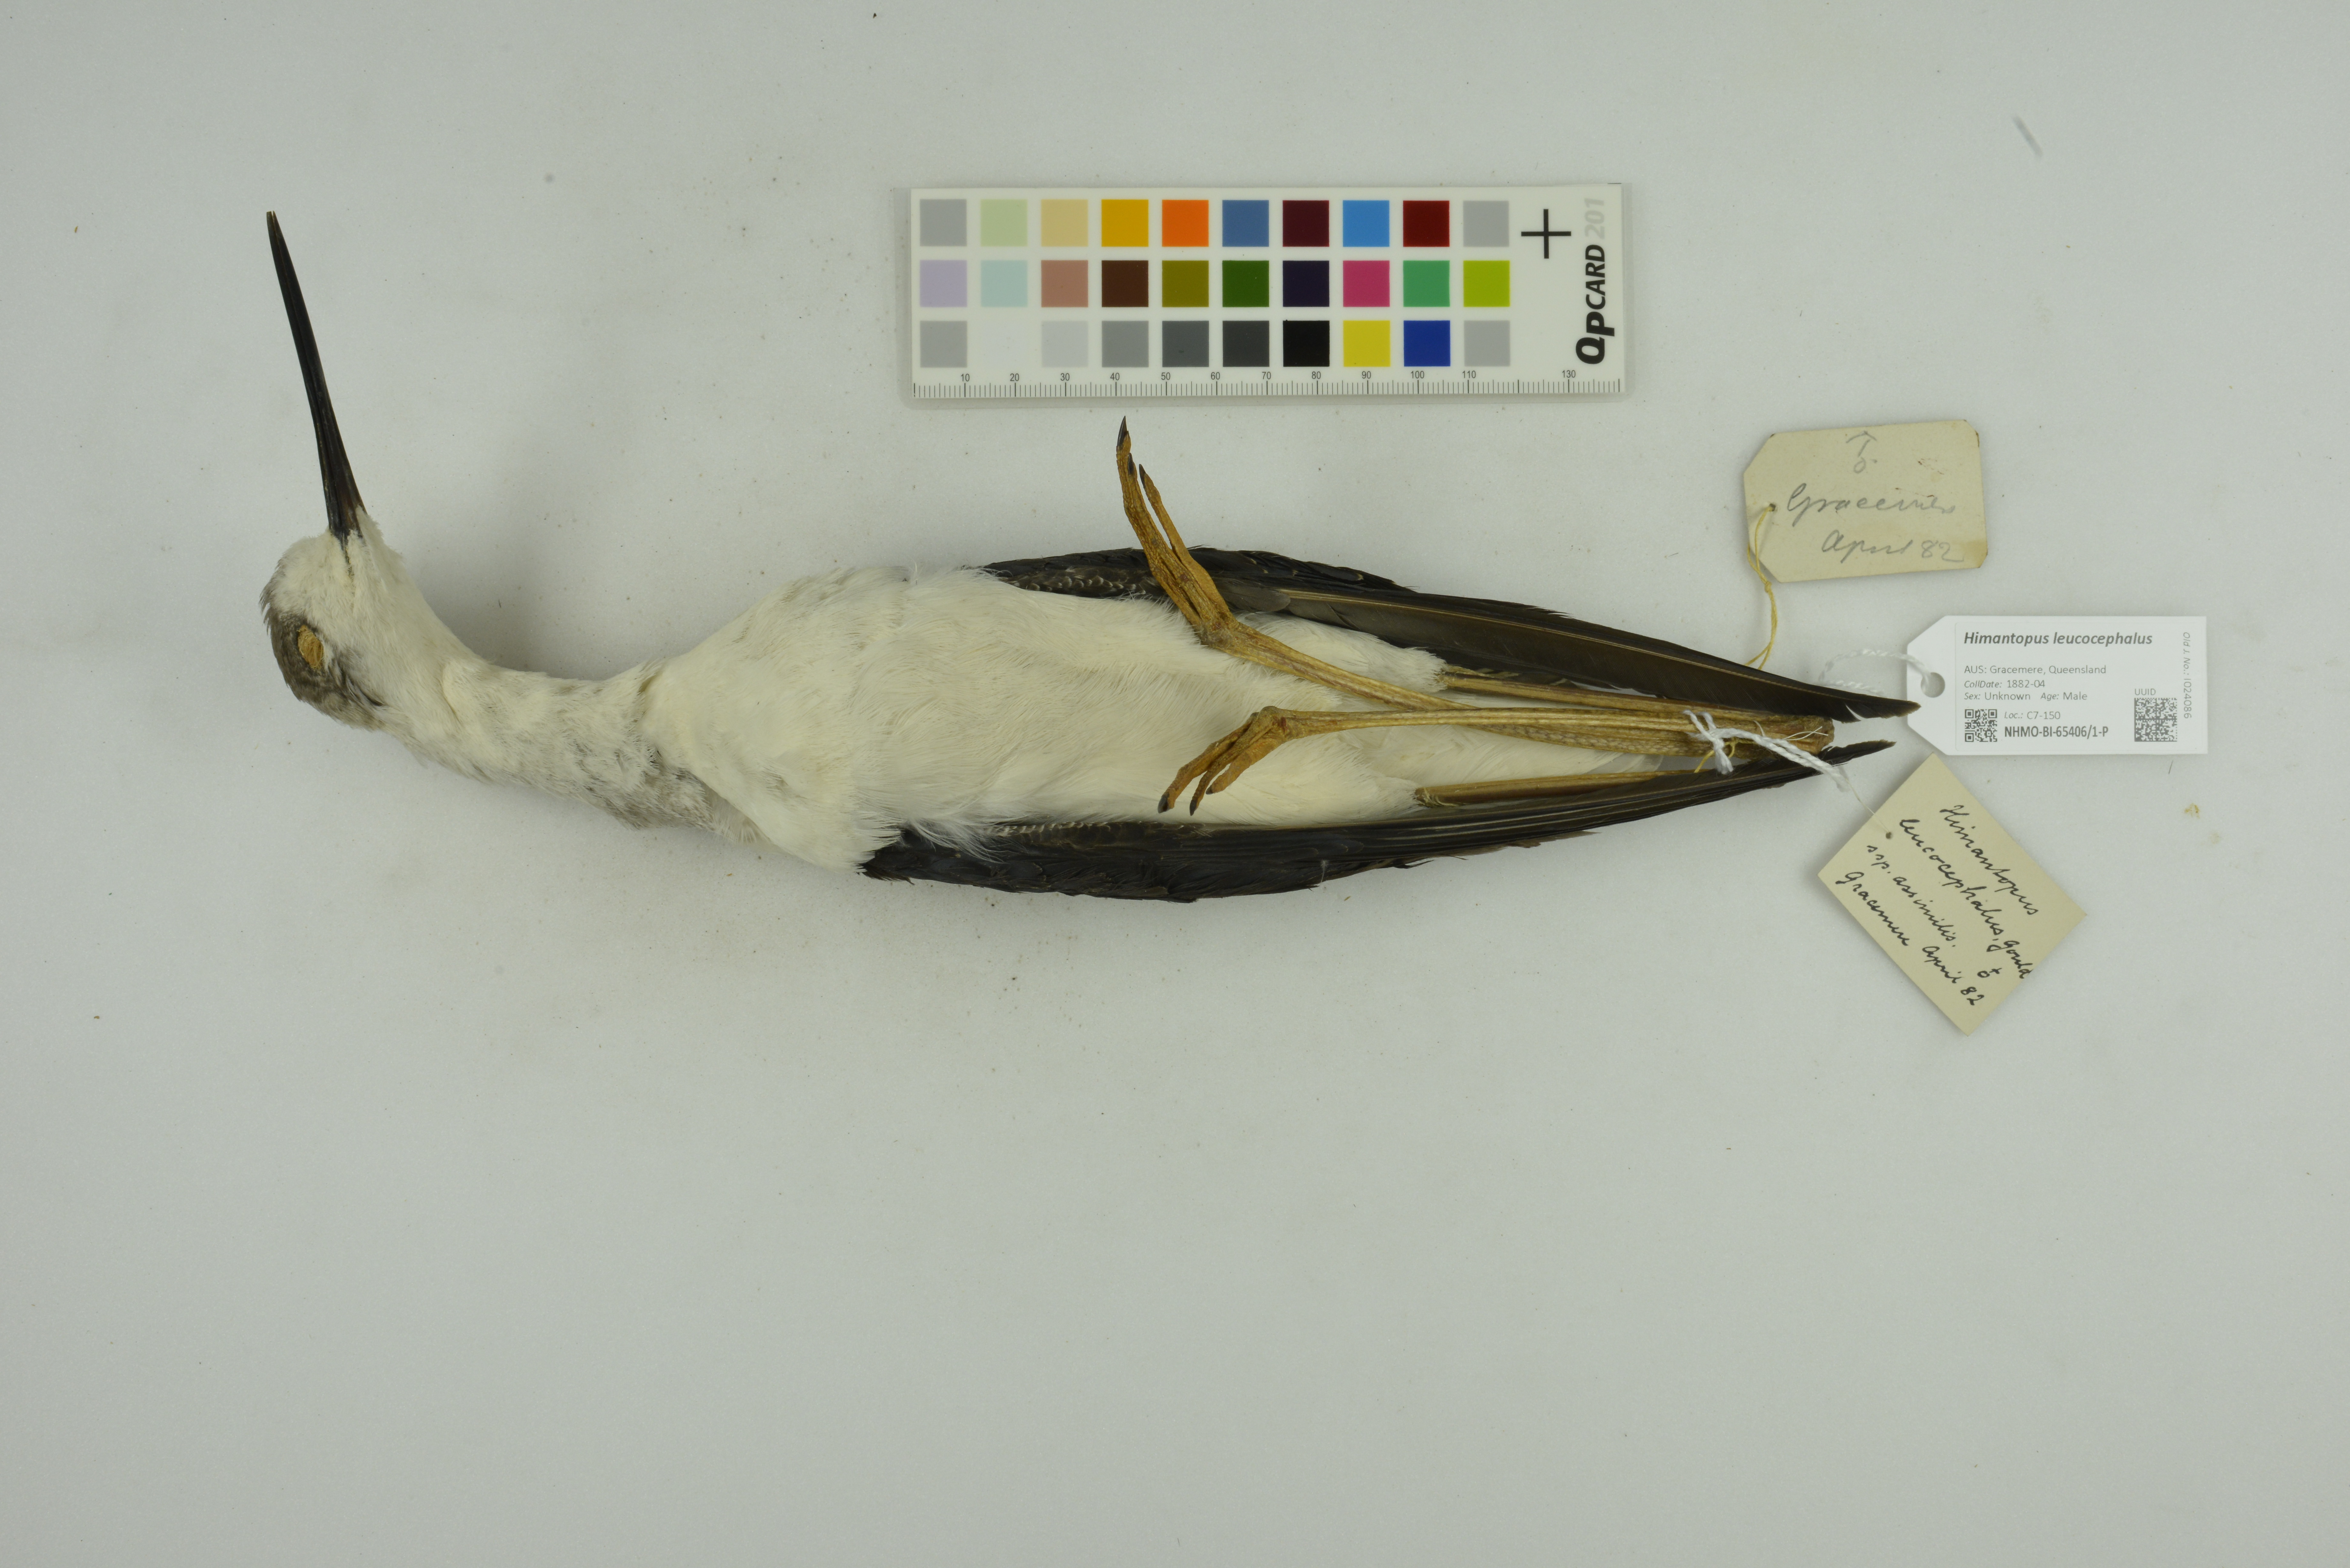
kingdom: Animalia
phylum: Chordata
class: Aves
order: Charadriiformes
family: Recurvirostridae
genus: Himantopus
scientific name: Himantopus leucocephalus
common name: White-headed stilt
